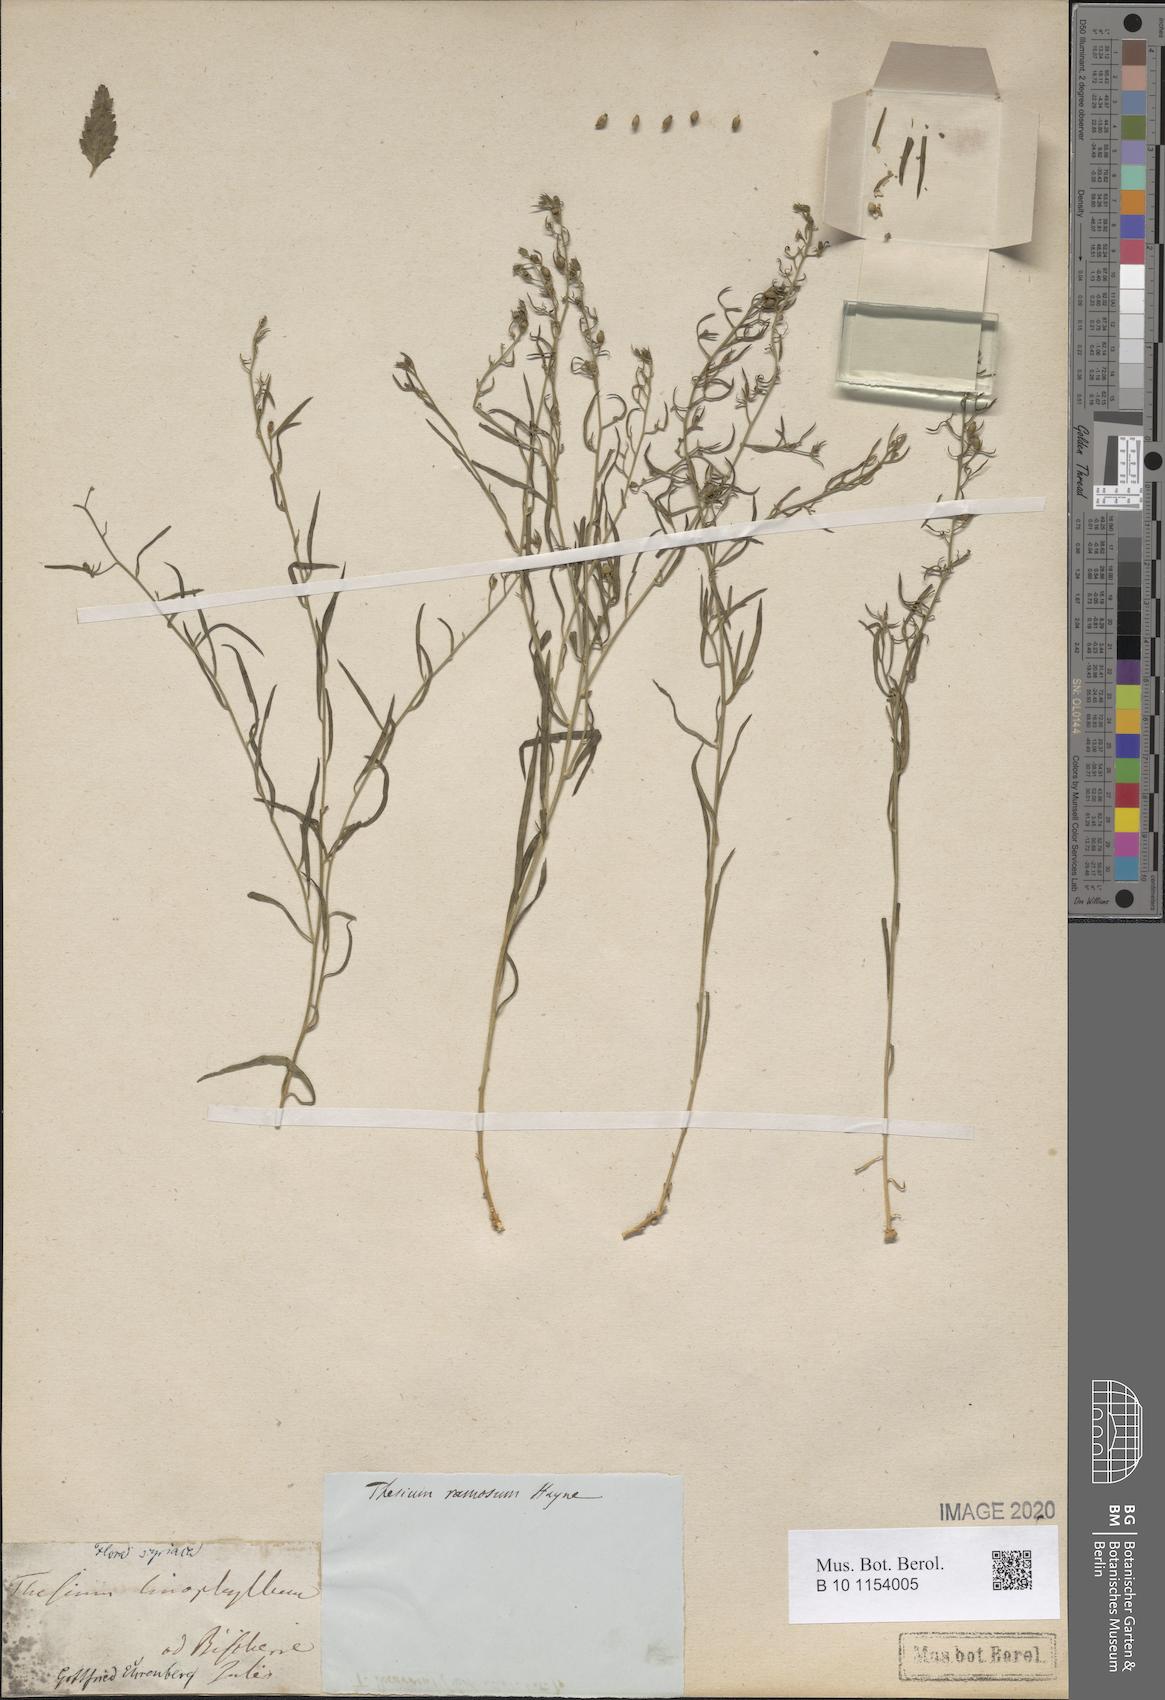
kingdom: Plantae
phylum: Tracheophyta
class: Magnoliopsida
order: Santalales
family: Thesiaceae
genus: Thesium
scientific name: Thesium ramosum
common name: Field thesium
